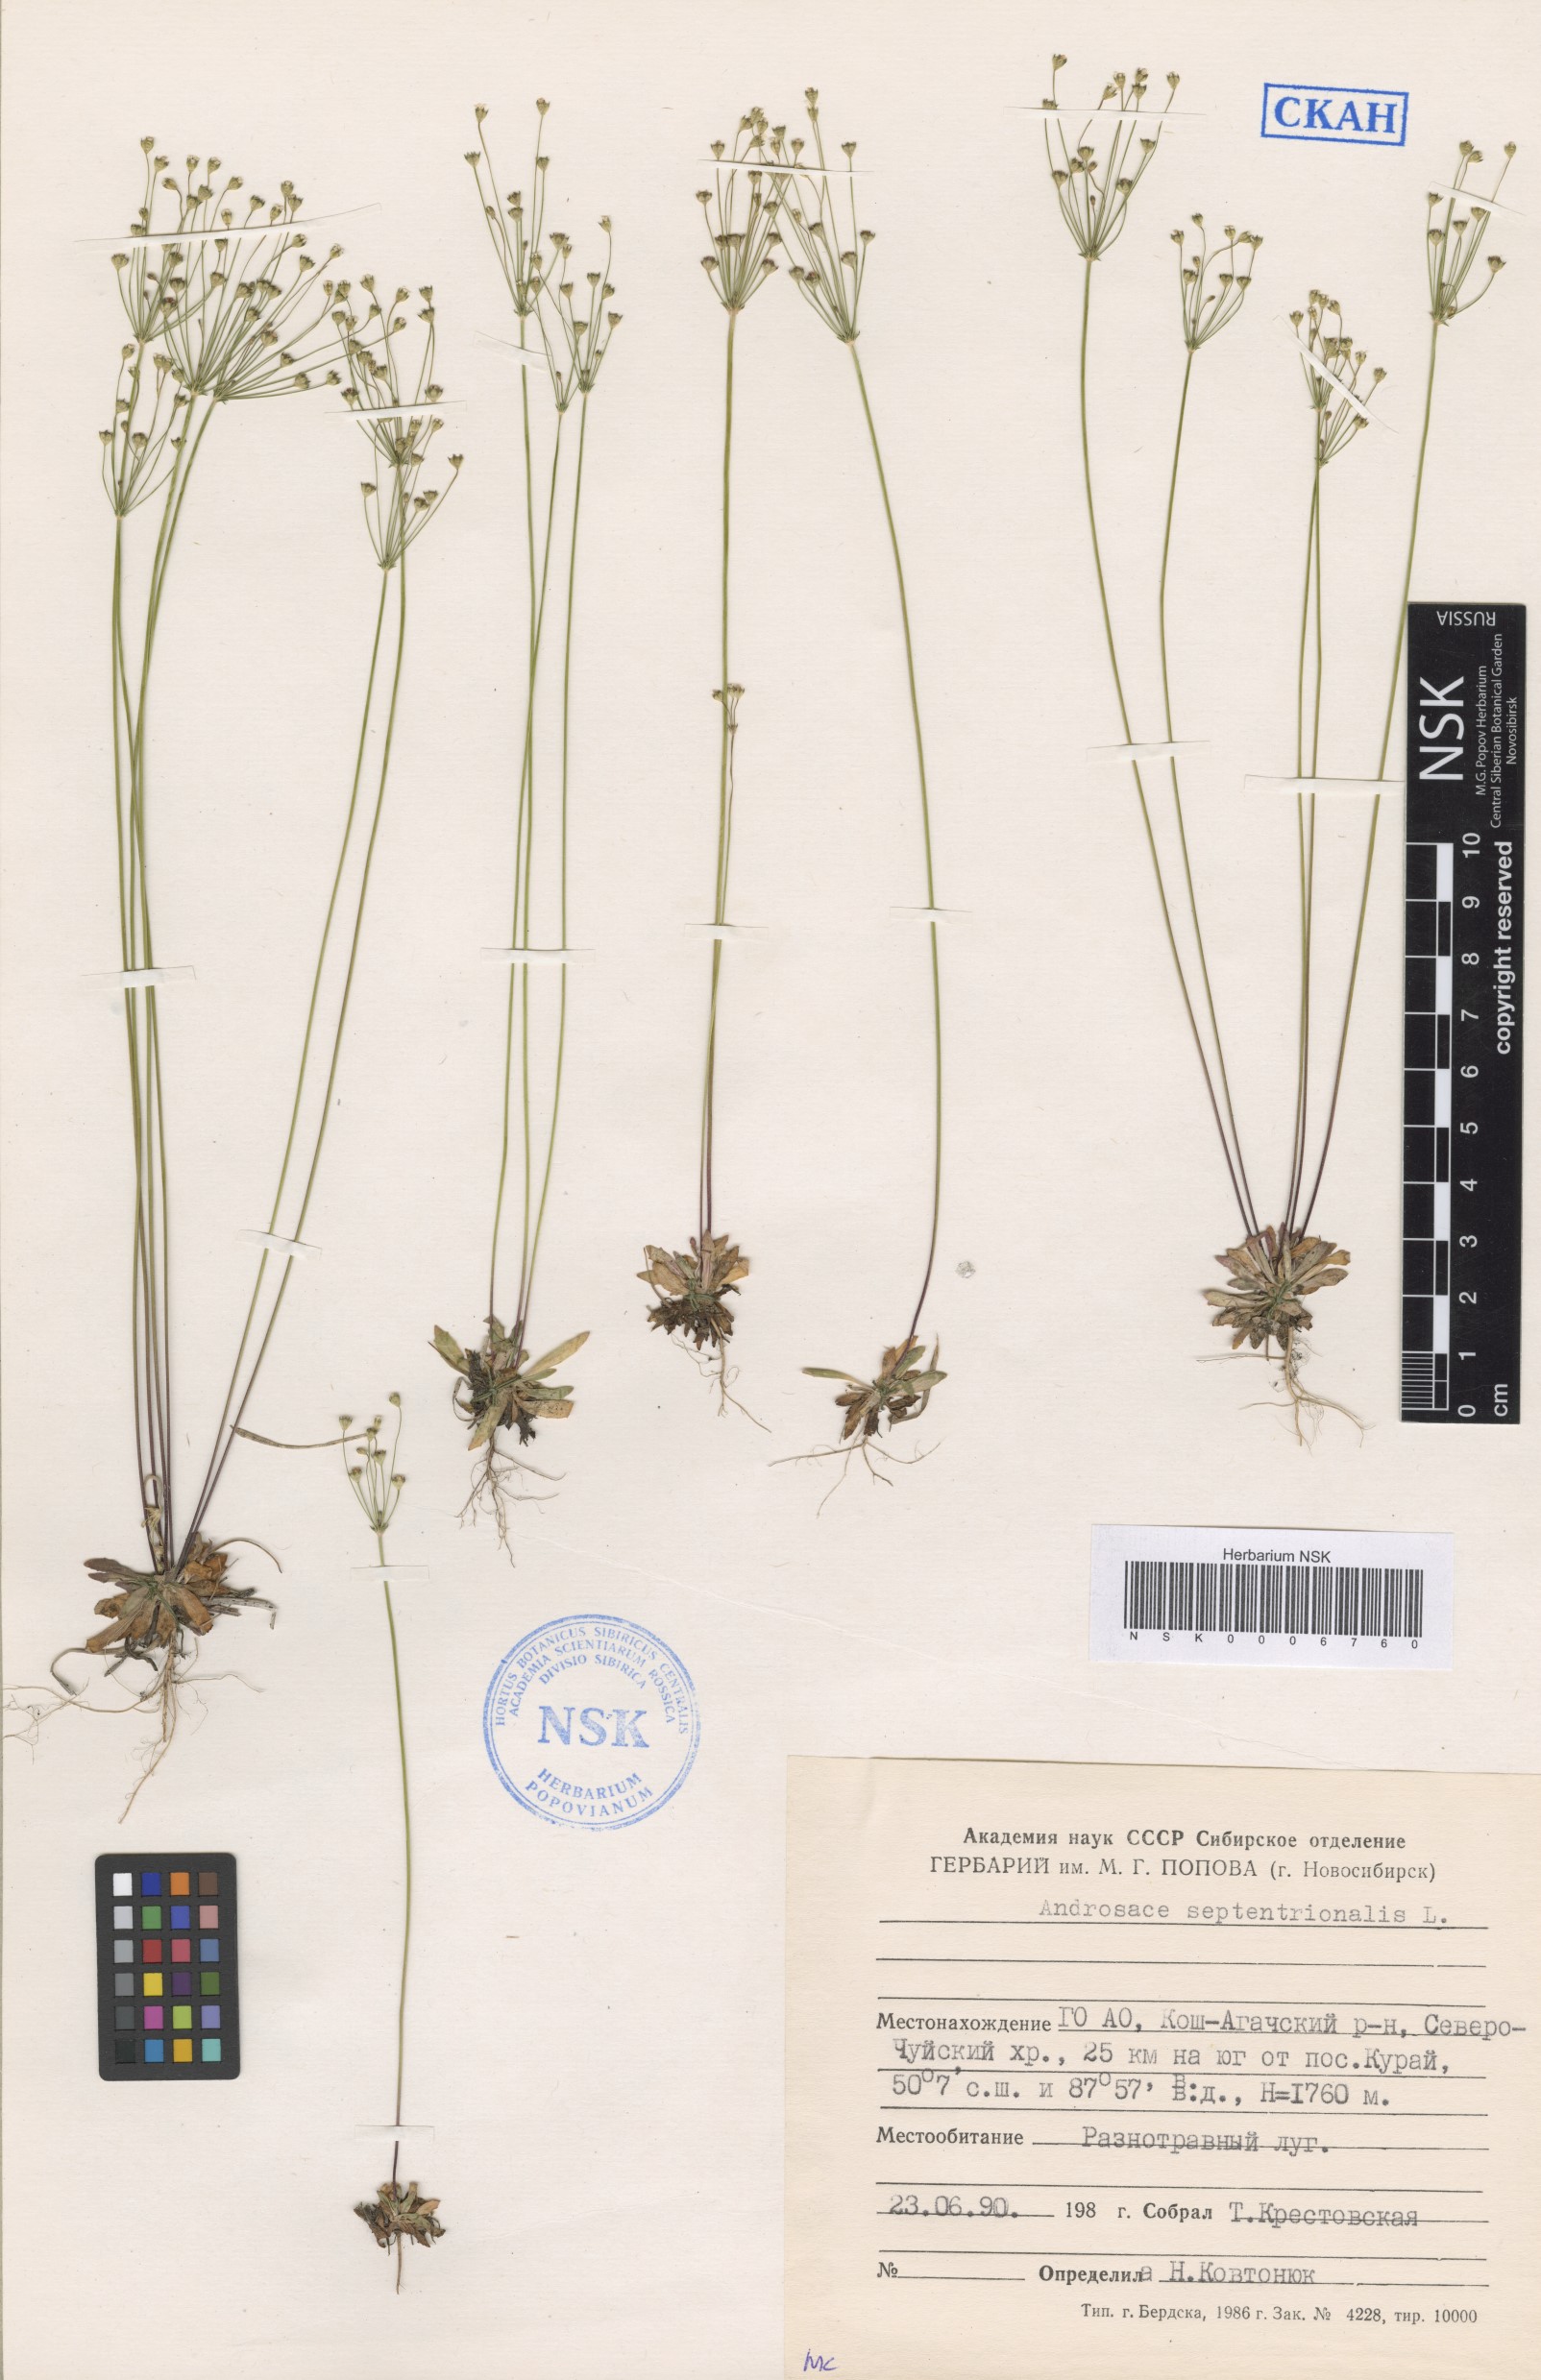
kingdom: Plantae
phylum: Tracheophyta
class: Magnoliopsida
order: Ericales
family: Primulaceae
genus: Androsace
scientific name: Androsace septentrionalis
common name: Hairy northern fairy-candelabra
